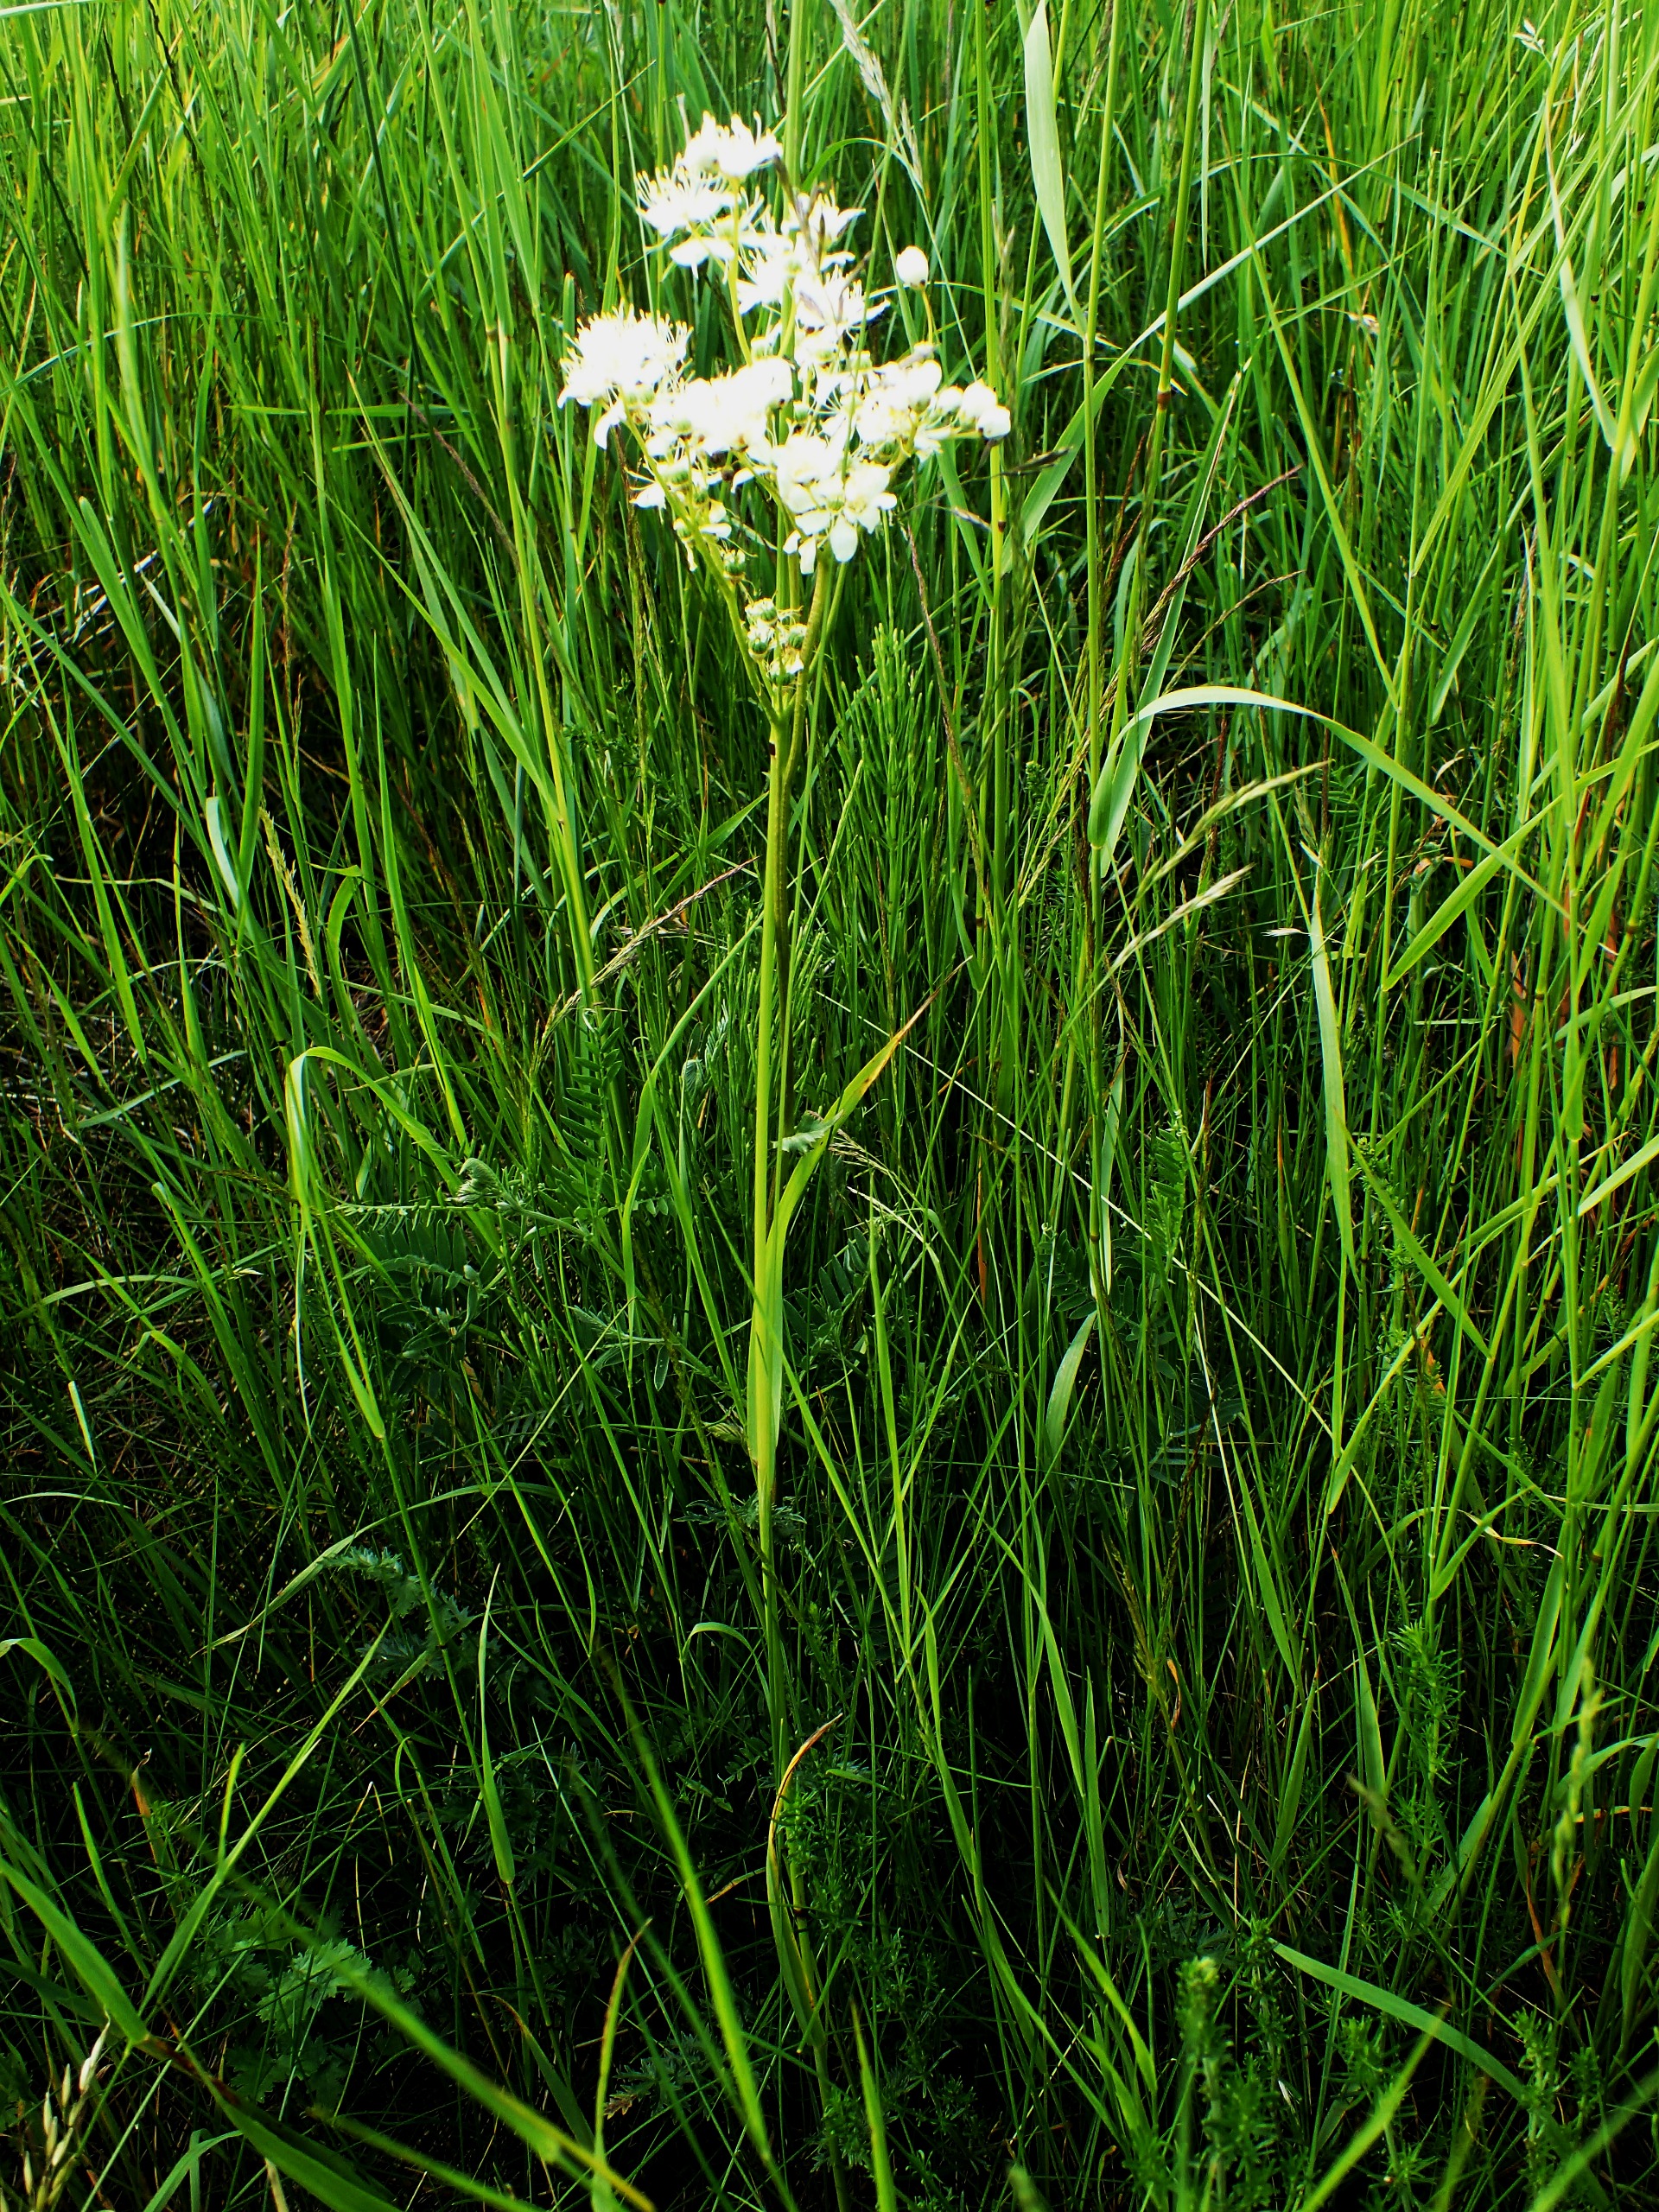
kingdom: Plantae
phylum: Tracheophyta
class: Magnoliopsida
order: Rosales
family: Rosaceae
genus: Filipendula
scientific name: Filipendula vulgaris
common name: Knoldet mjødurt
